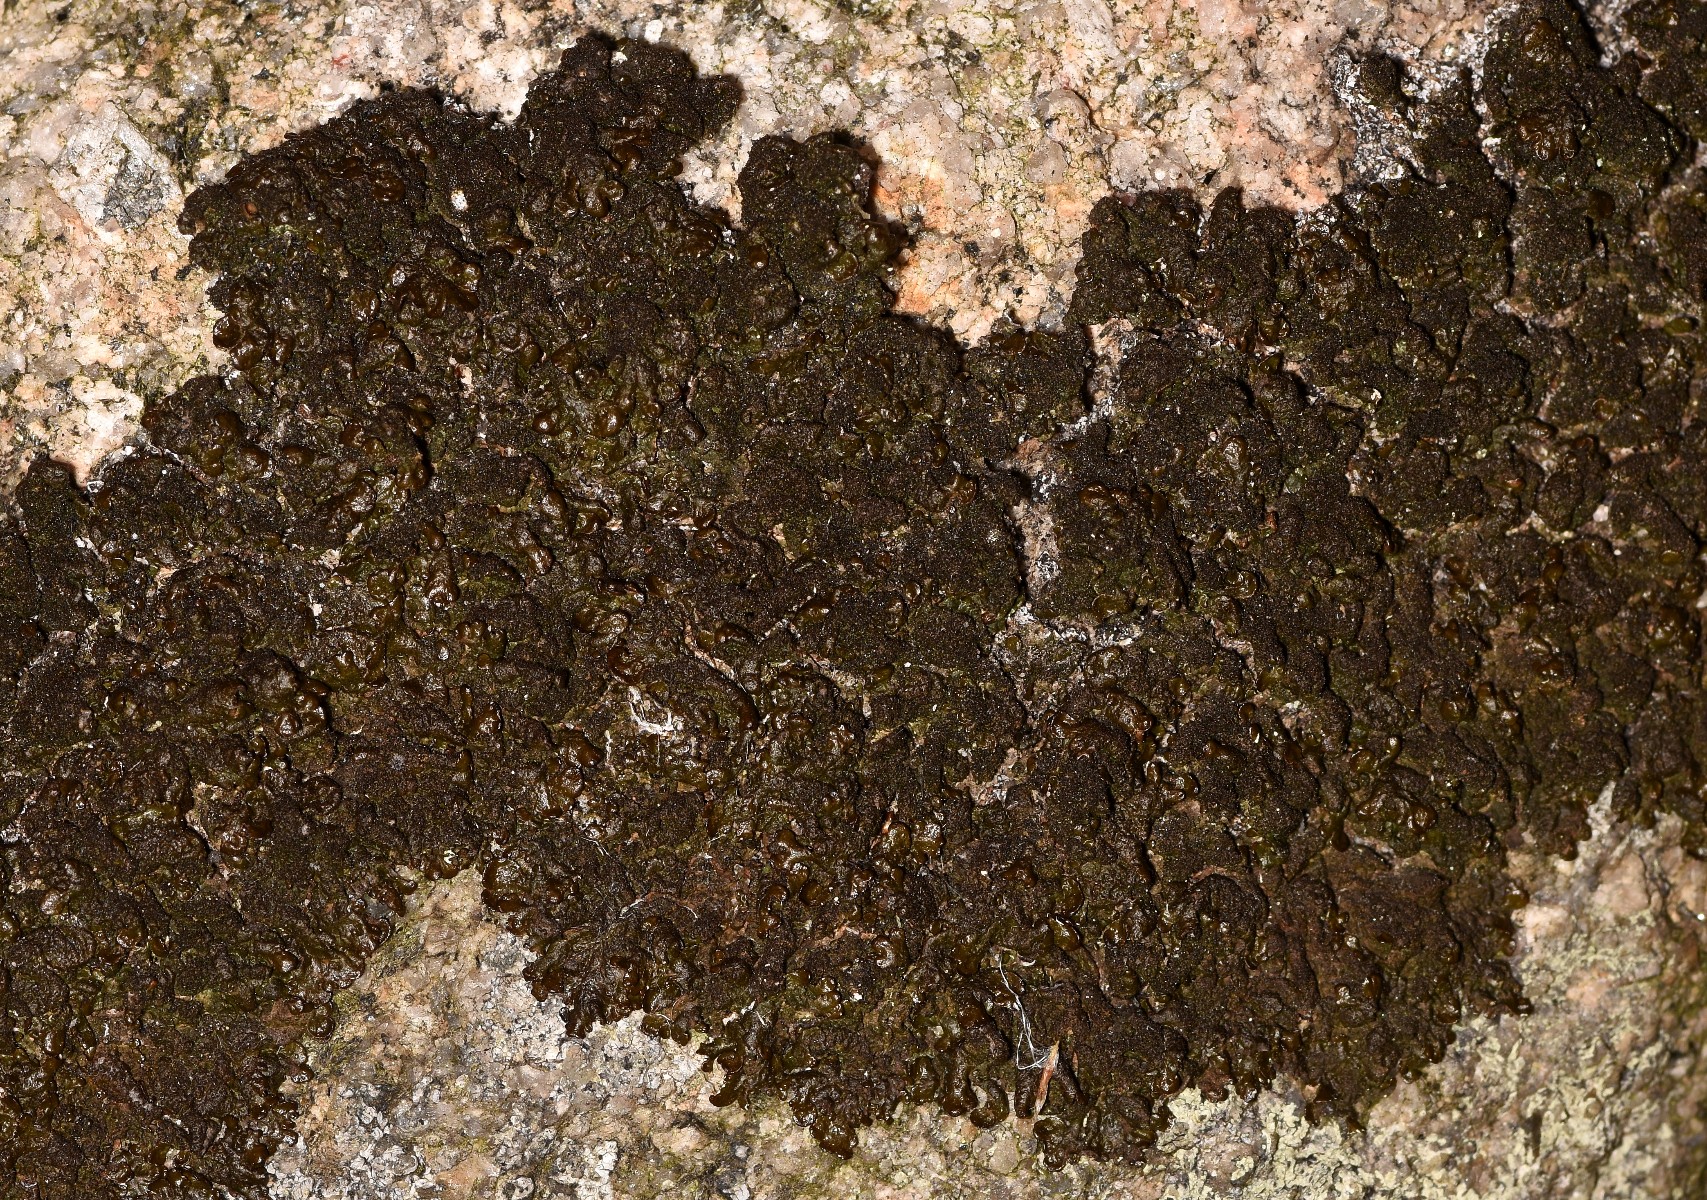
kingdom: Fungi
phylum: Ascomycota
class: Lecanoromycetes
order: Lecanorales
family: Parmeliaceae
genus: Melanelixia
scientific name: Melanelixia fuliginosa
